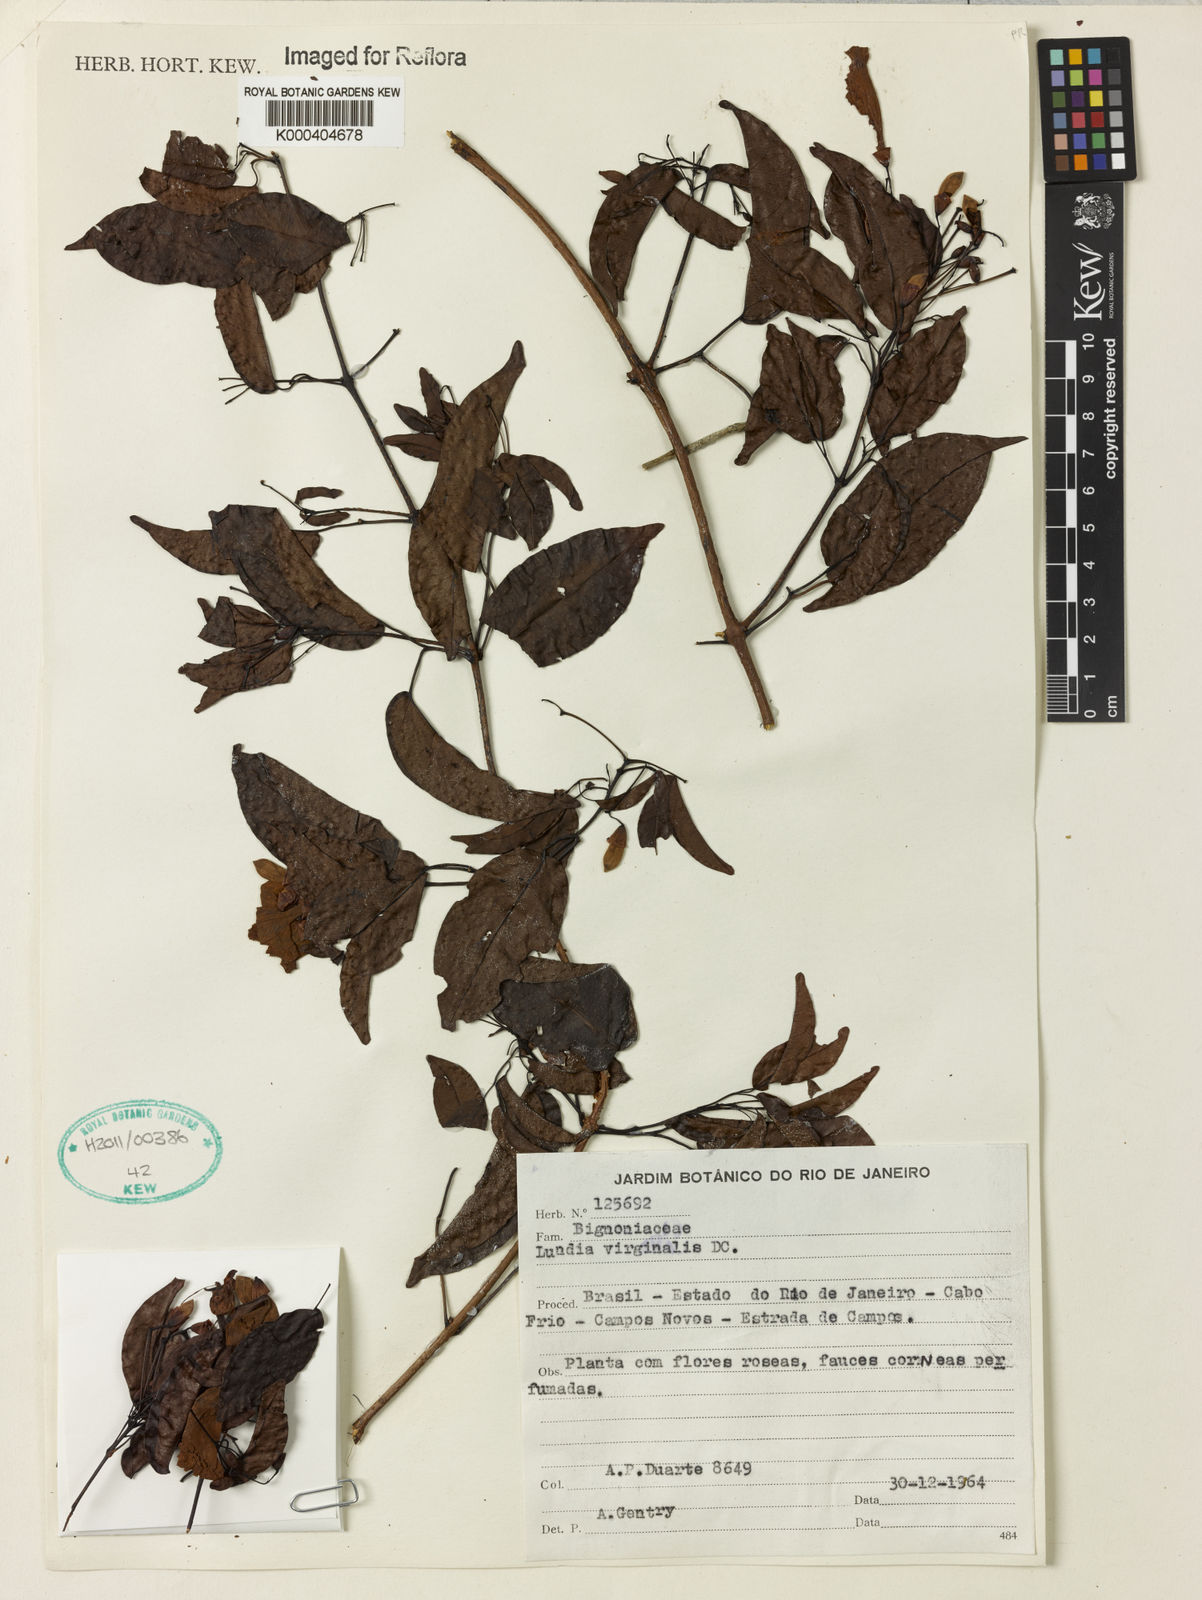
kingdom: Plantae
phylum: Tracheophyta
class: Magnoliopsida
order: Lamiales
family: Bignoniaceae
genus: Lundia
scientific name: Lundia virginalis
